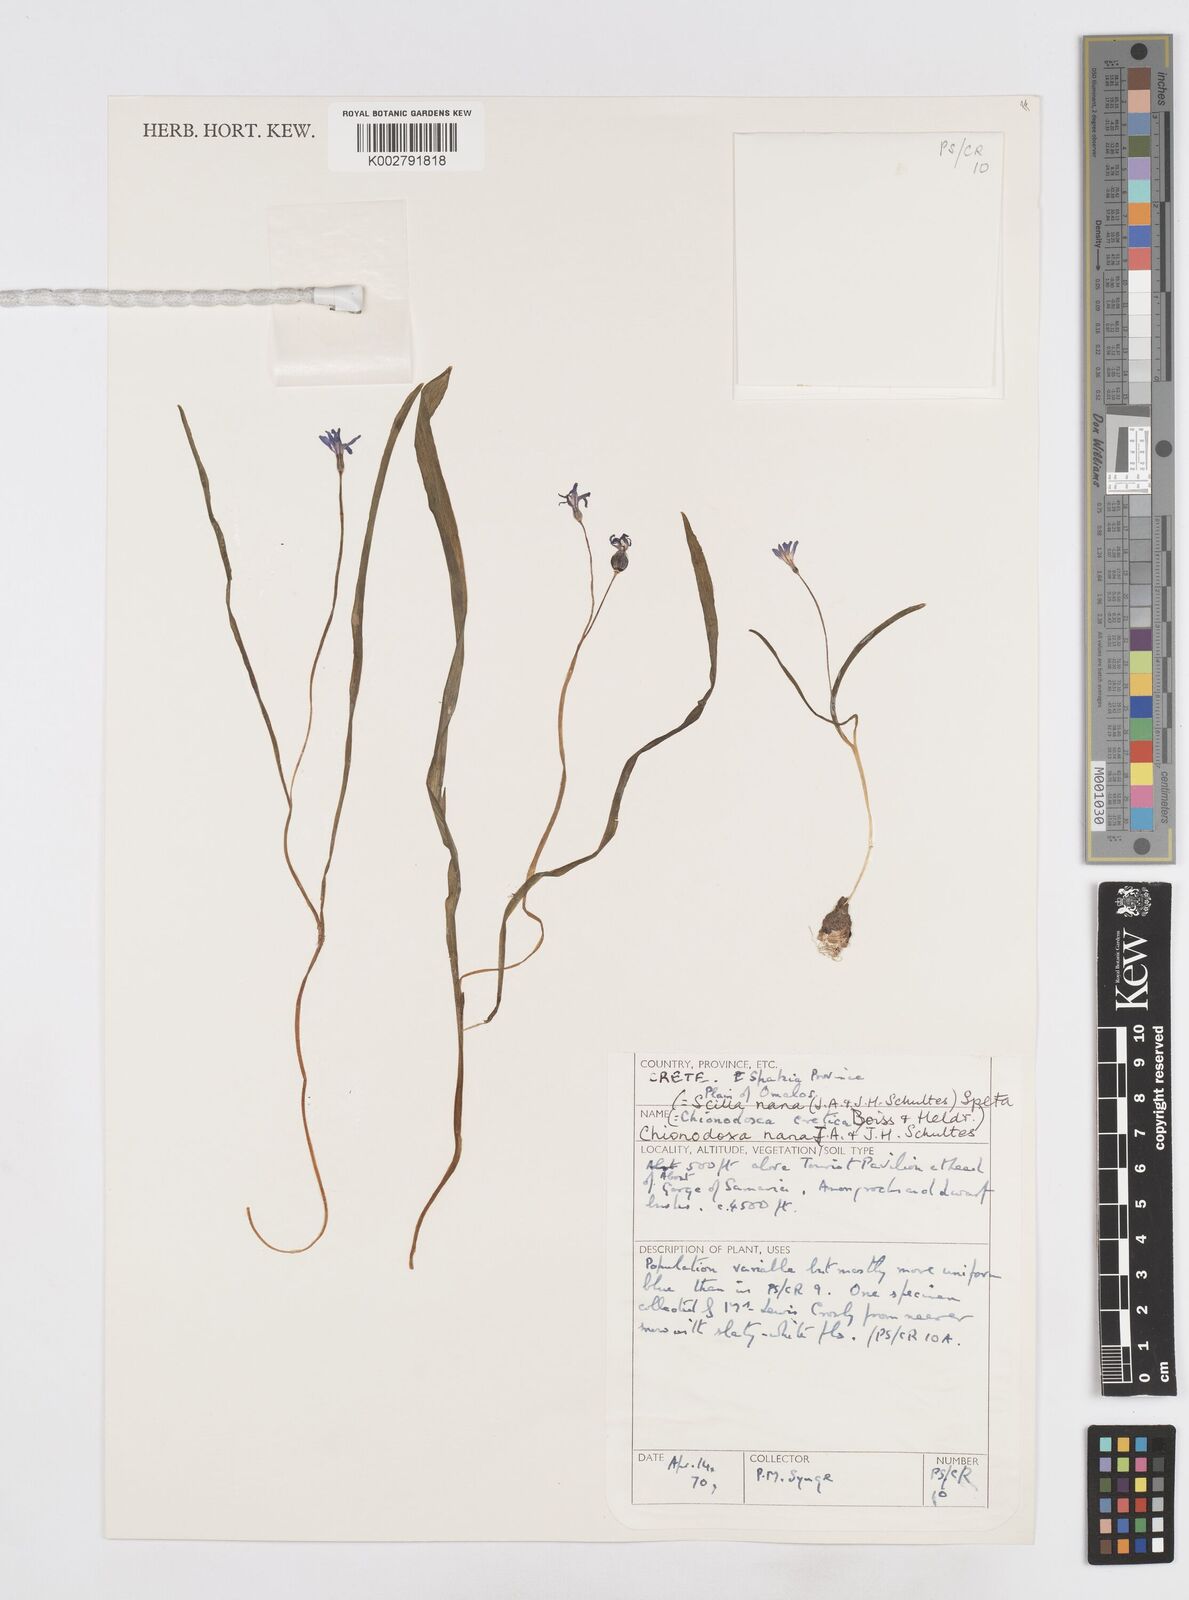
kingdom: Plantae
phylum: Tracheophyta
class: Liliopsida
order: Asparagales
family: Asparagaceae
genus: Scilla
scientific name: Scilla cretica
